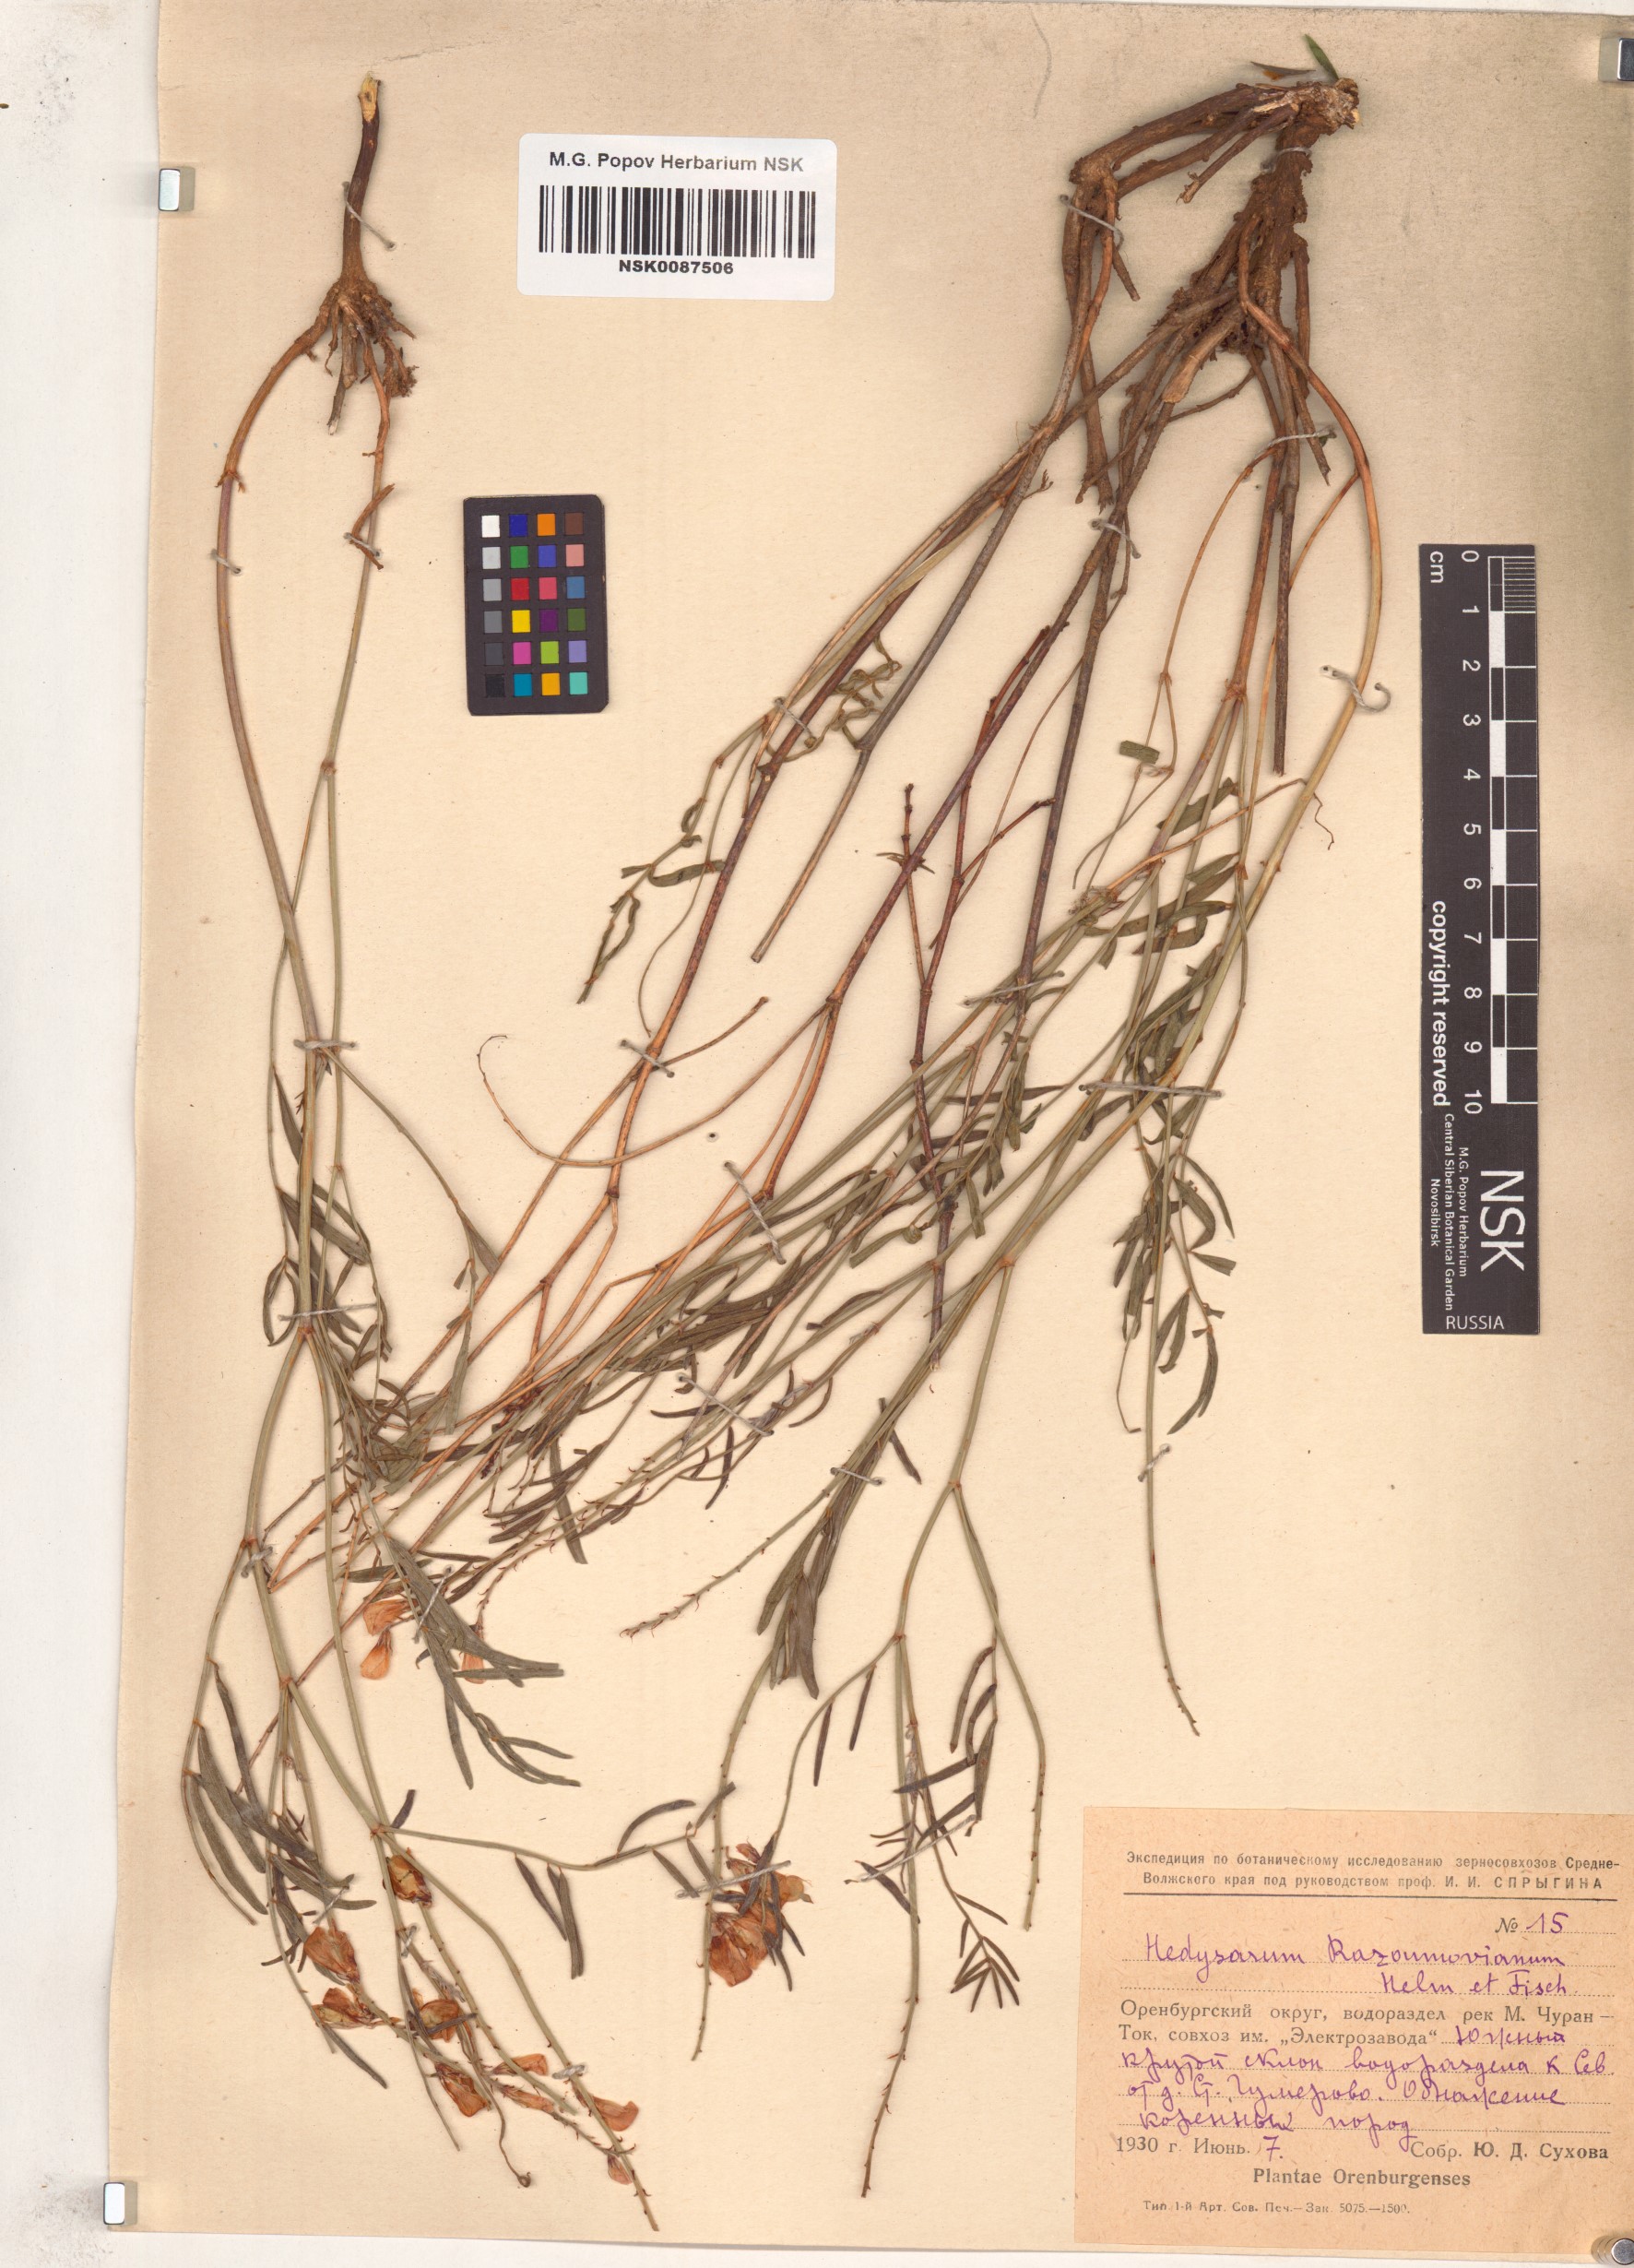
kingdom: Plantae
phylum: Tracheophyta
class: Magnoliopsida
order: Fabales
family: Fabaceae
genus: Hedysarum
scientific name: Hedysarum razoumovianum
